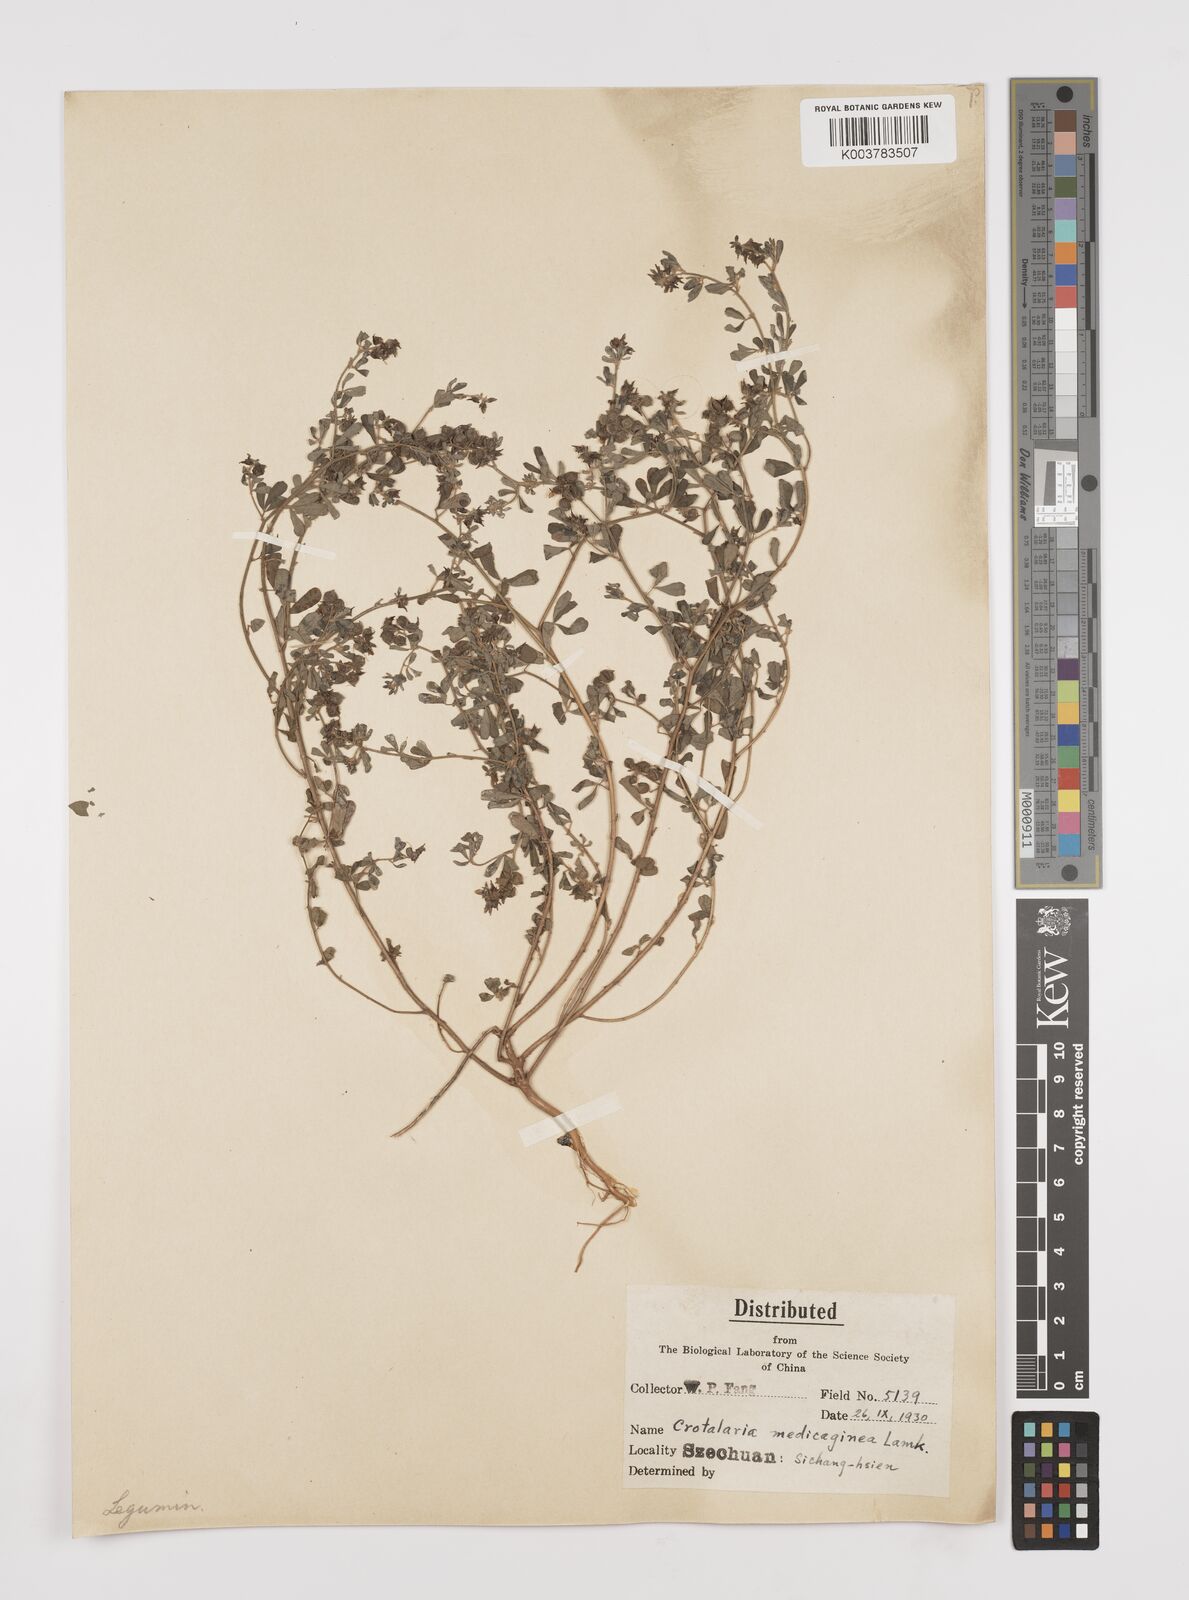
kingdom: Plantae
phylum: Tracheophyta
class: Magnoliopsida
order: Fabales
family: Fabaceae
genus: Crotalaria
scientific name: Crotalaria medicaginea
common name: Trefoil rattlepod
